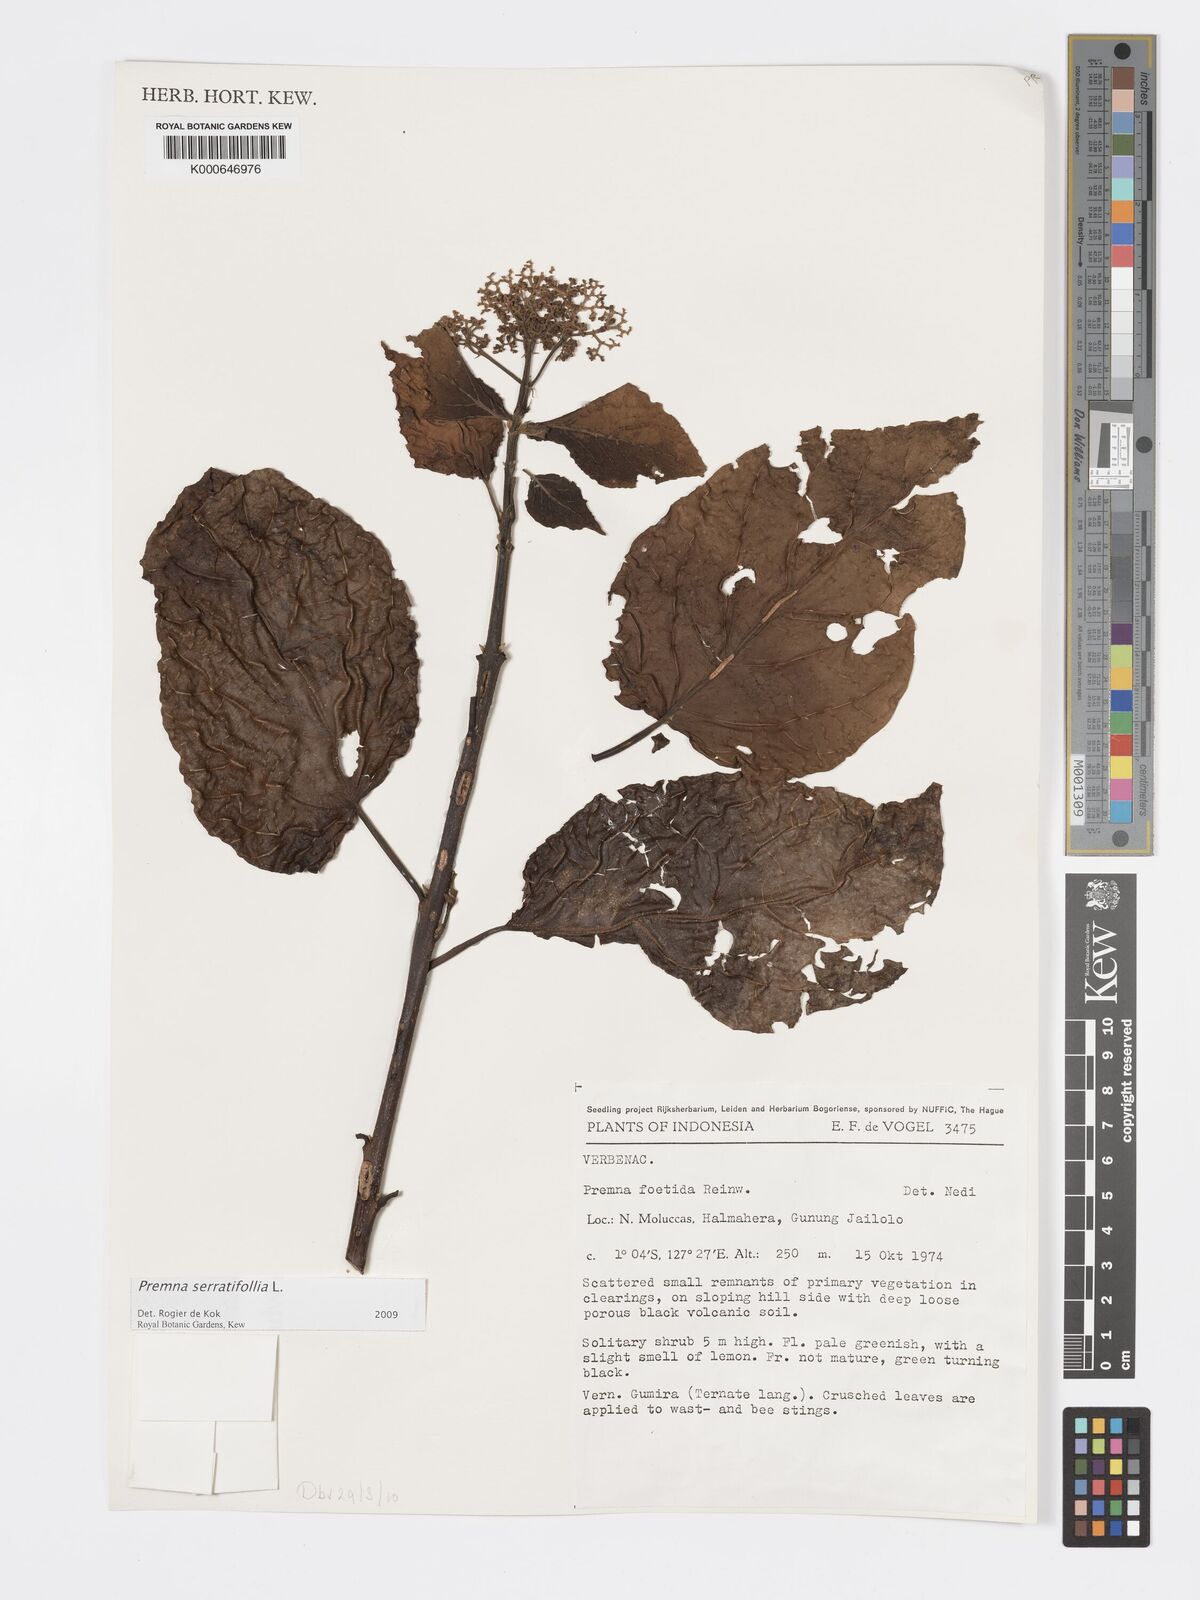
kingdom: Plantae
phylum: Tracheophyta
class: Magnoliopsida
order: Lamiales
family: Lamiaceae
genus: Premna
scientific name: Premna serratifolia
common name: Bastard guelder
